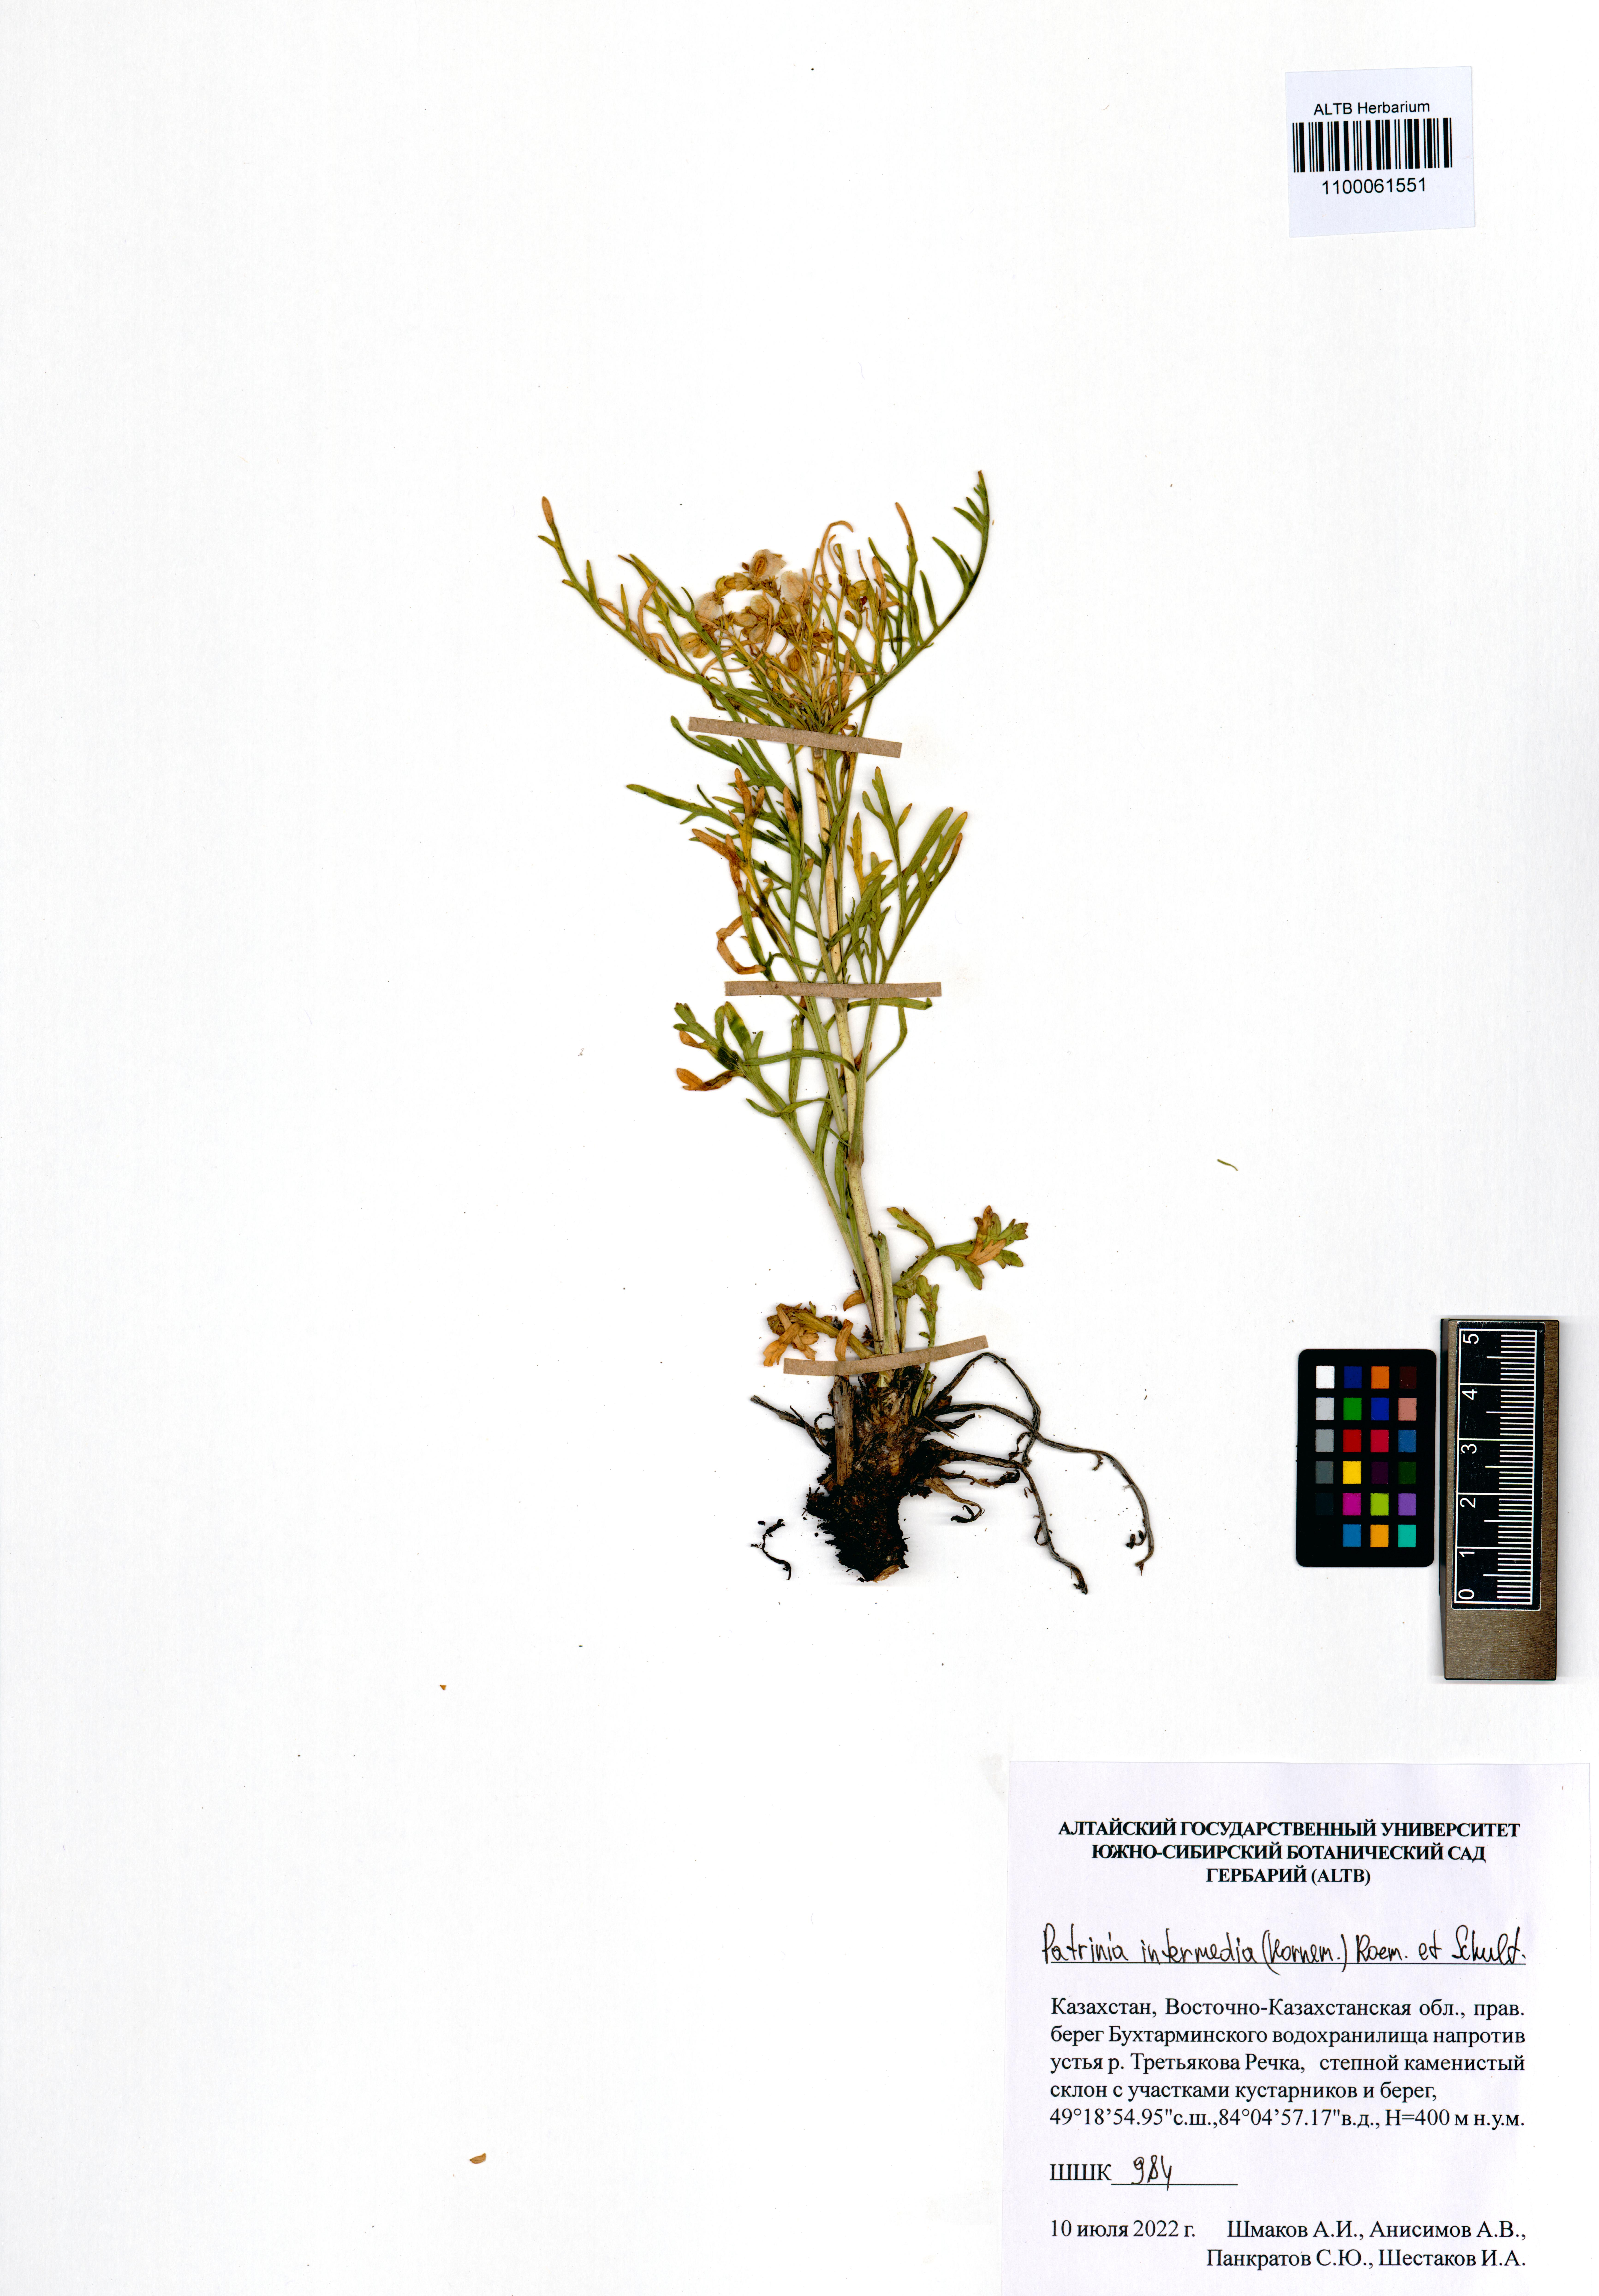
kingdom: Plantae
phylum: Tracheophyta
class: Magnoliopsida
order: Dipsacales
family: Caprifoliaceae
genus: Patrinia
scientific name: Patrinia intermedia
